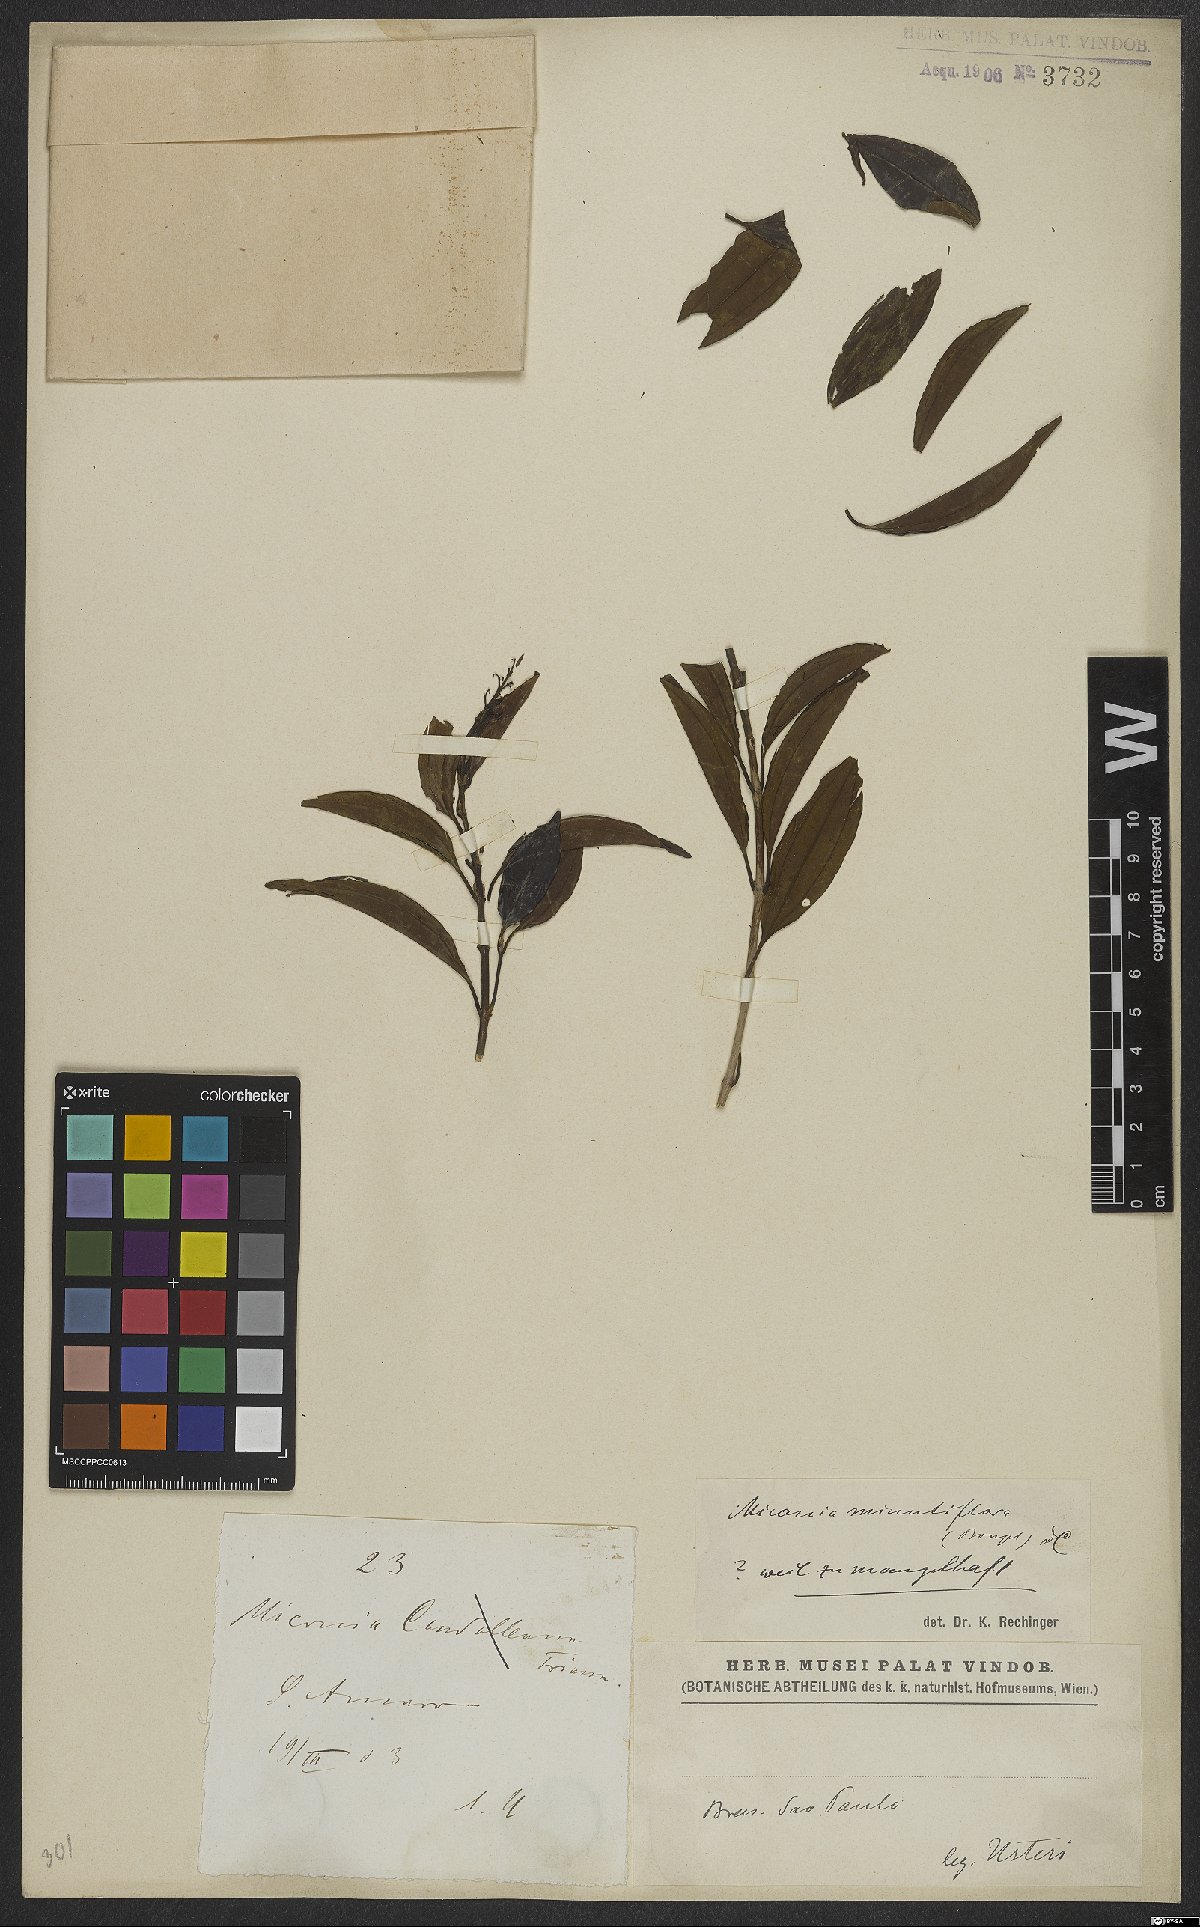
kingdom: Plantae
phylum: Tracheophyta
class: Magnoliopsida
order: Myrtales
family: Melastomataceae
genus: Miconia
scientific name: Miconia minutiflora
